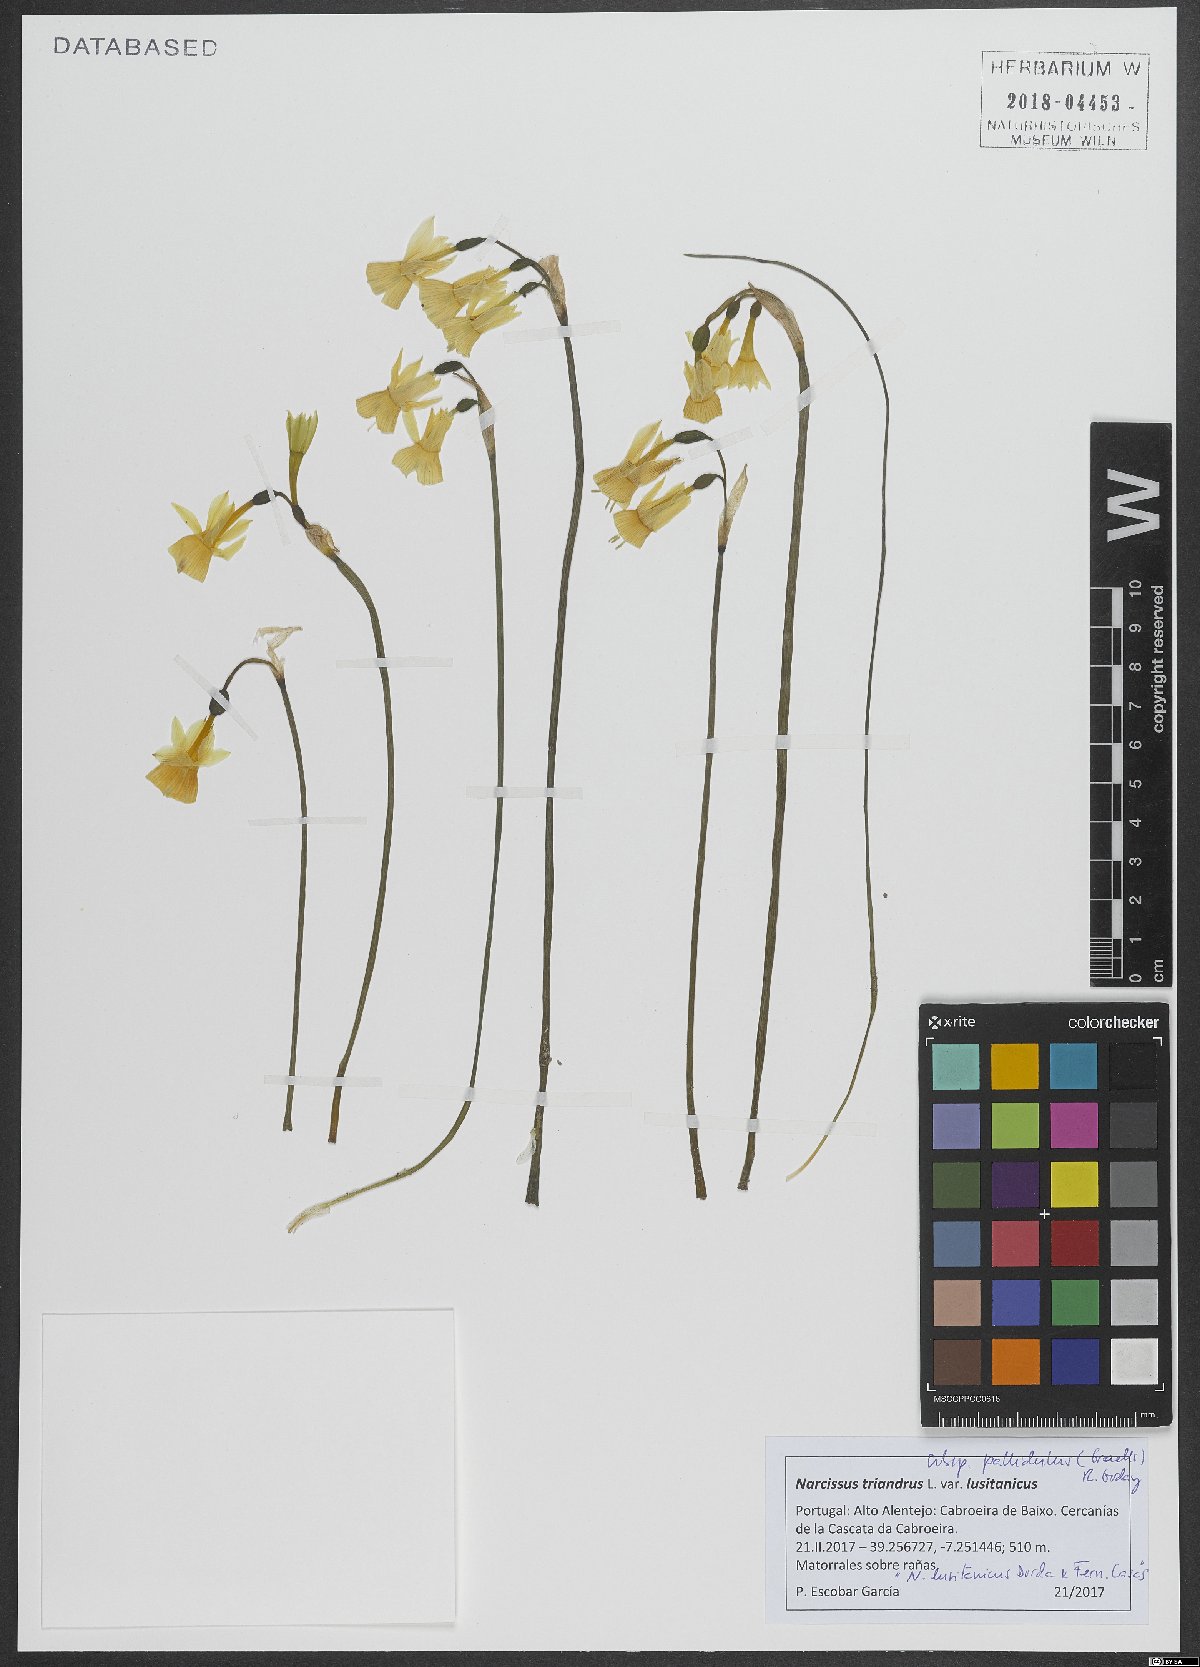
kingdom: Plantae
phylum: Tracheophyta
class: Liliopsida
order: Asparagales
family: Amaryllidaceae
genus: Narcissus
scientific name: Narcissus triandrus
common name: Angel's-tears
